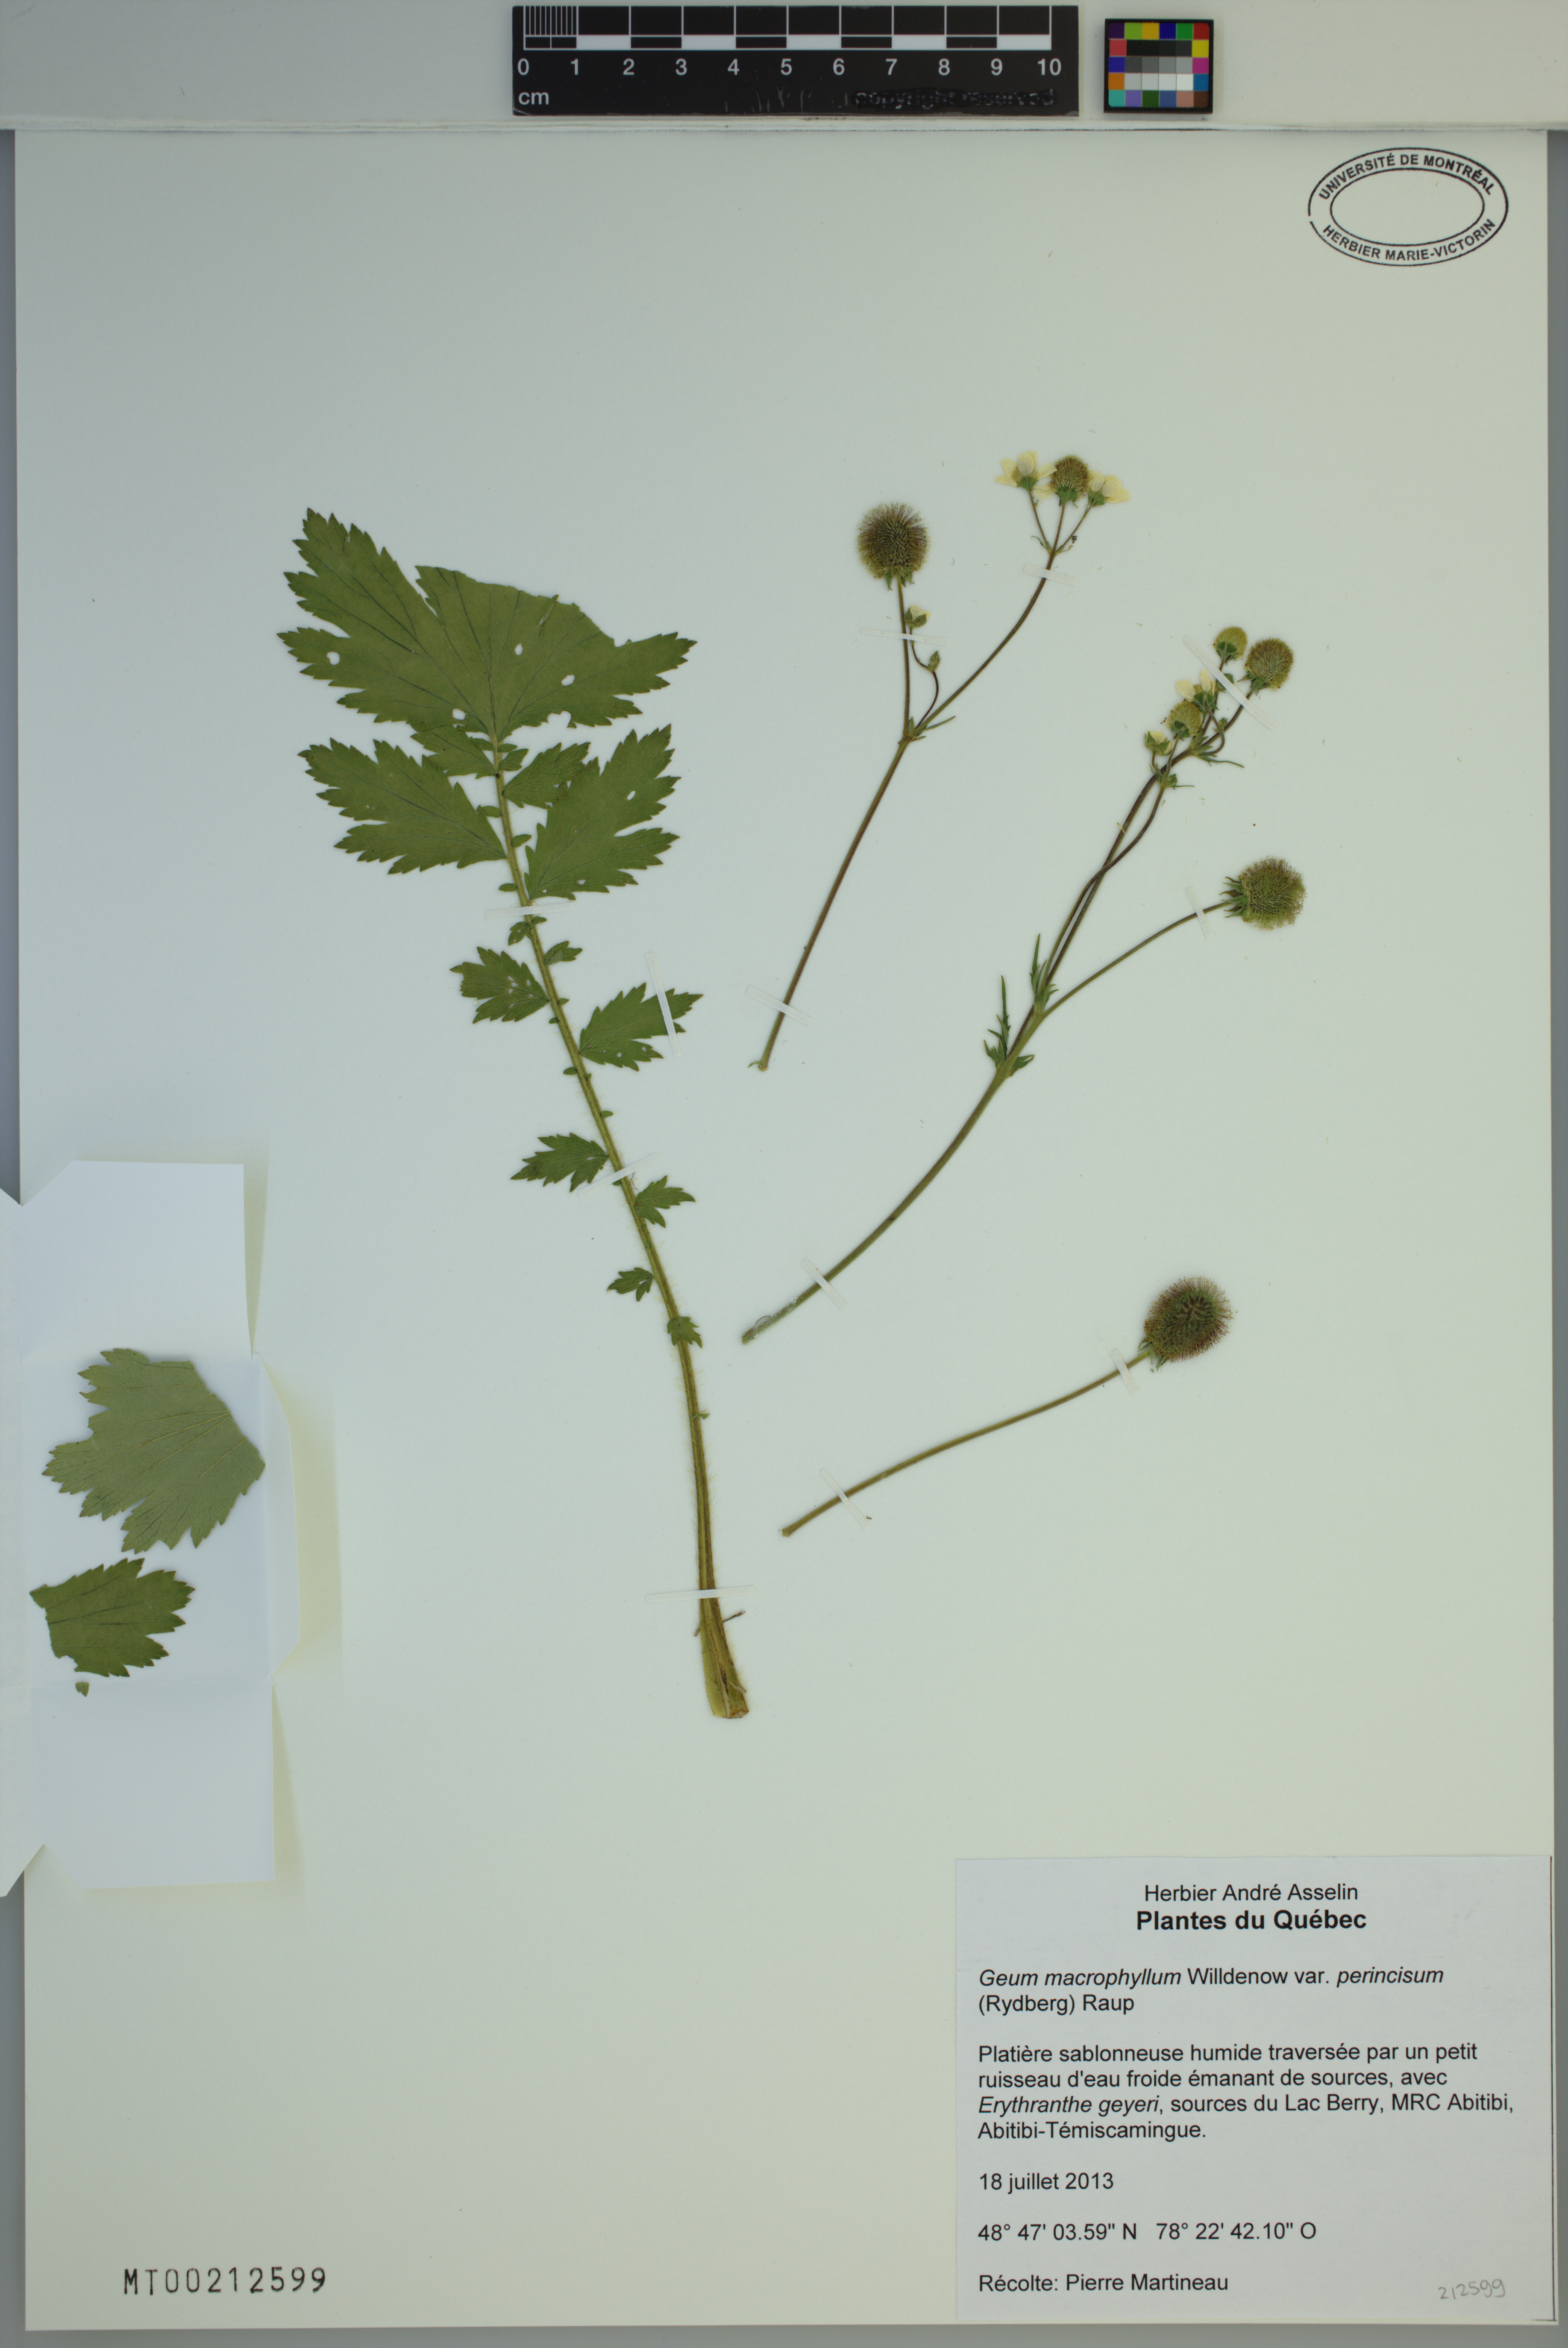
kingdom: Plantae
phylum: Tracheophyta
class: Magnoliopsida
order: Rosales
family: Rosaceae
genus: Geum
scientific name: Geum macrophyllum
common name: Large-leaved avens
